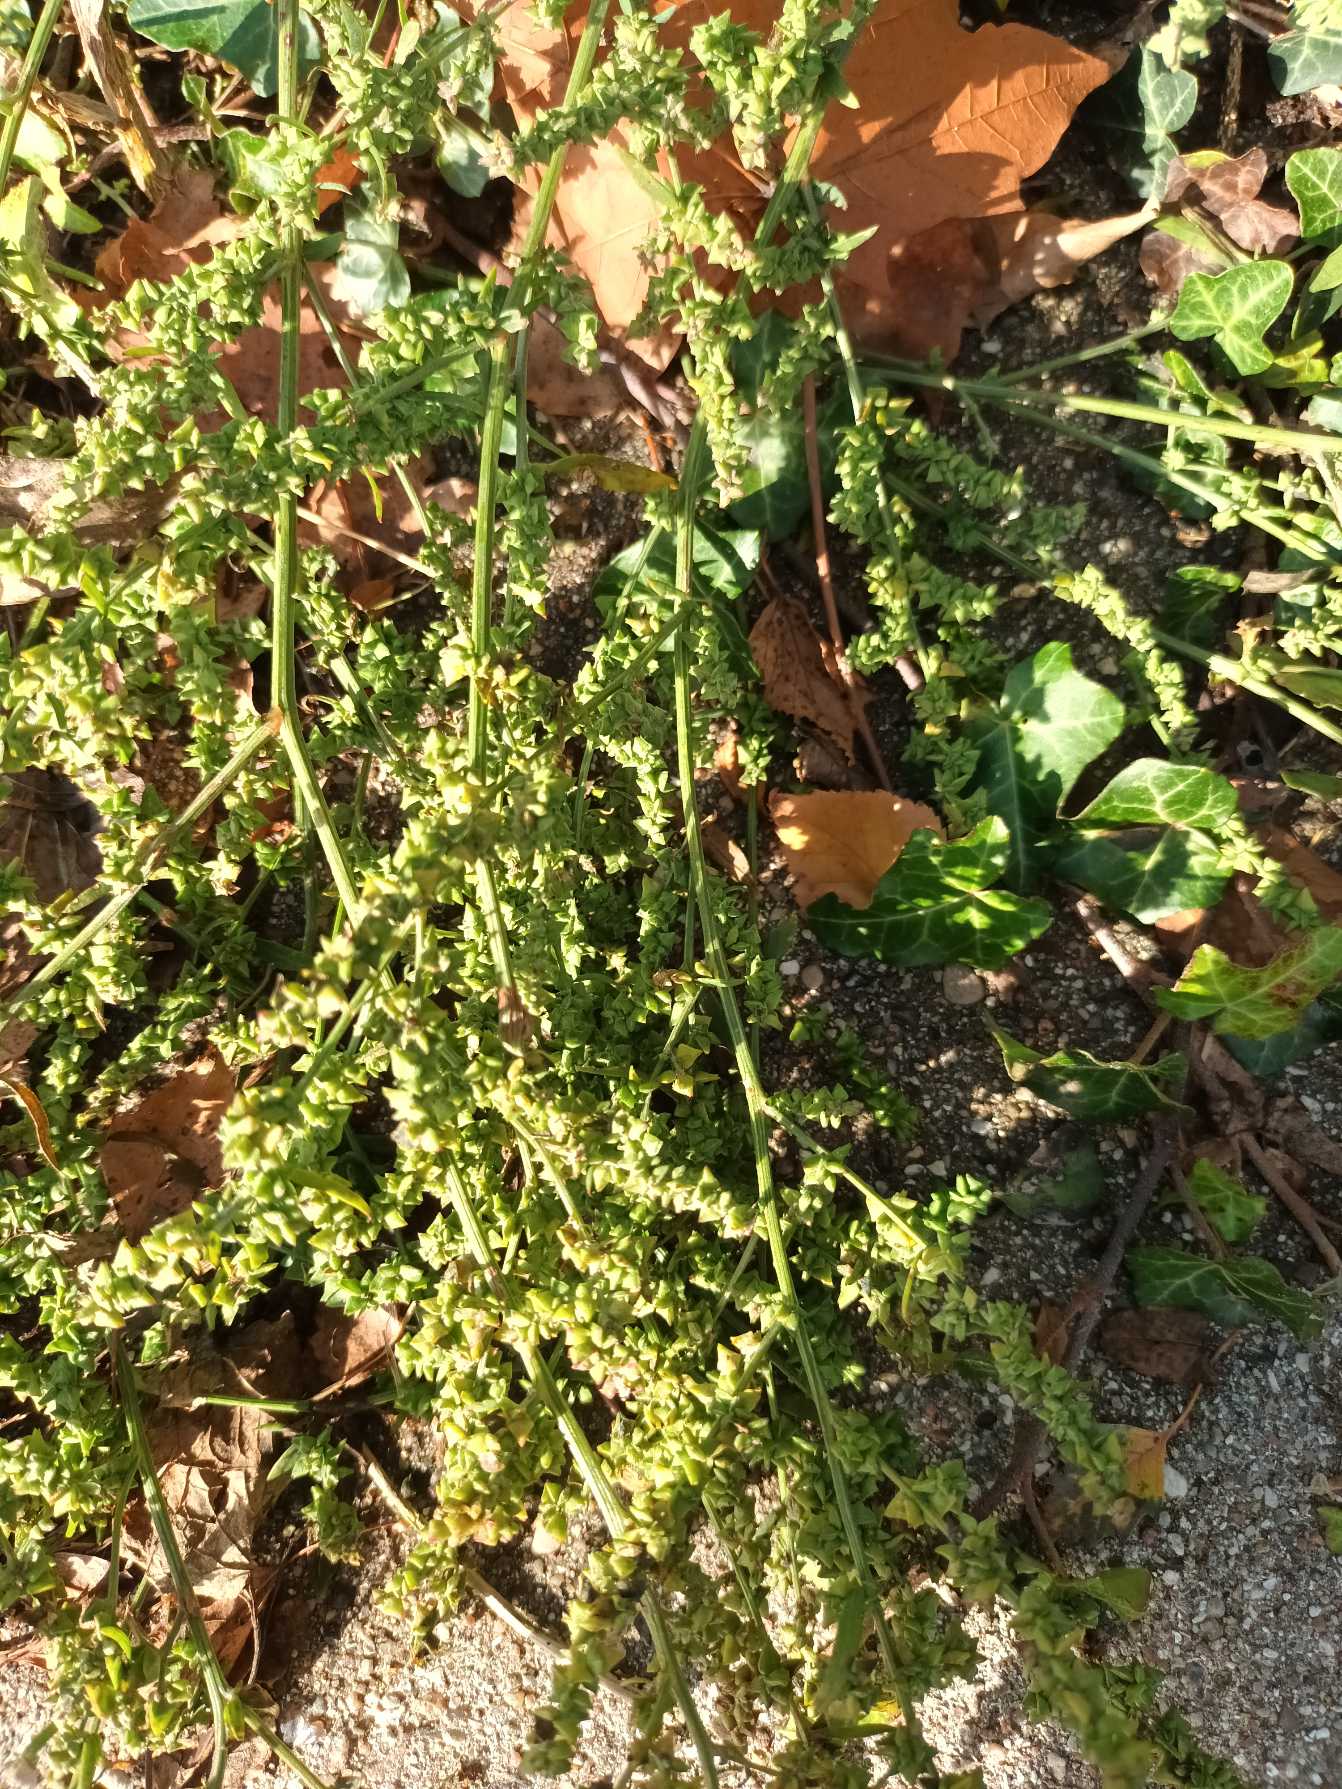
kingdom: Plantae
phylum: Tracheophyta
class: Magnoliopsida
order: Caryophyllales
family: Amaranthaceae
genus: Atriplex
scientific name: Atriplex patula
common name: Svine-mælde
